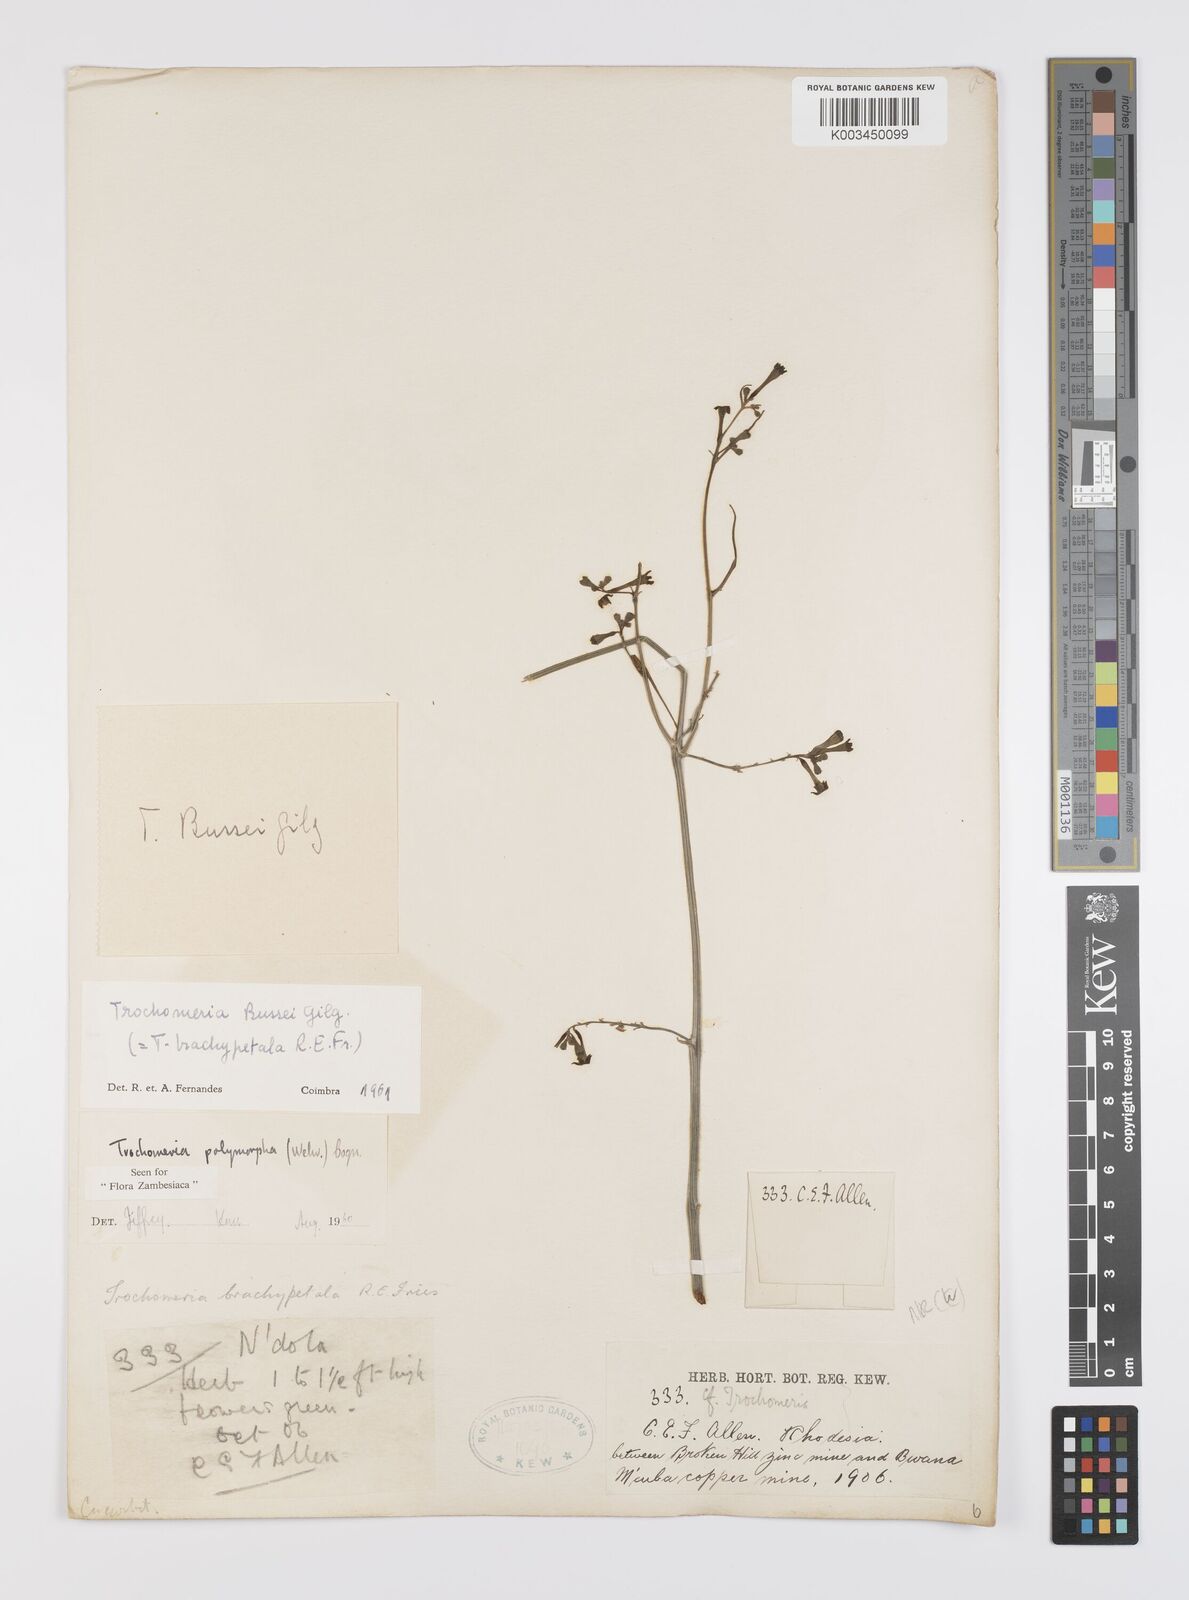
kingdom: Plantae
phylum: Tracheophyta
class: Magnoliopsida
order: Cucurbitales
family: Cucurbitaceae
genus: Trochomeria
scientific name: Trochomeria polymorpha
